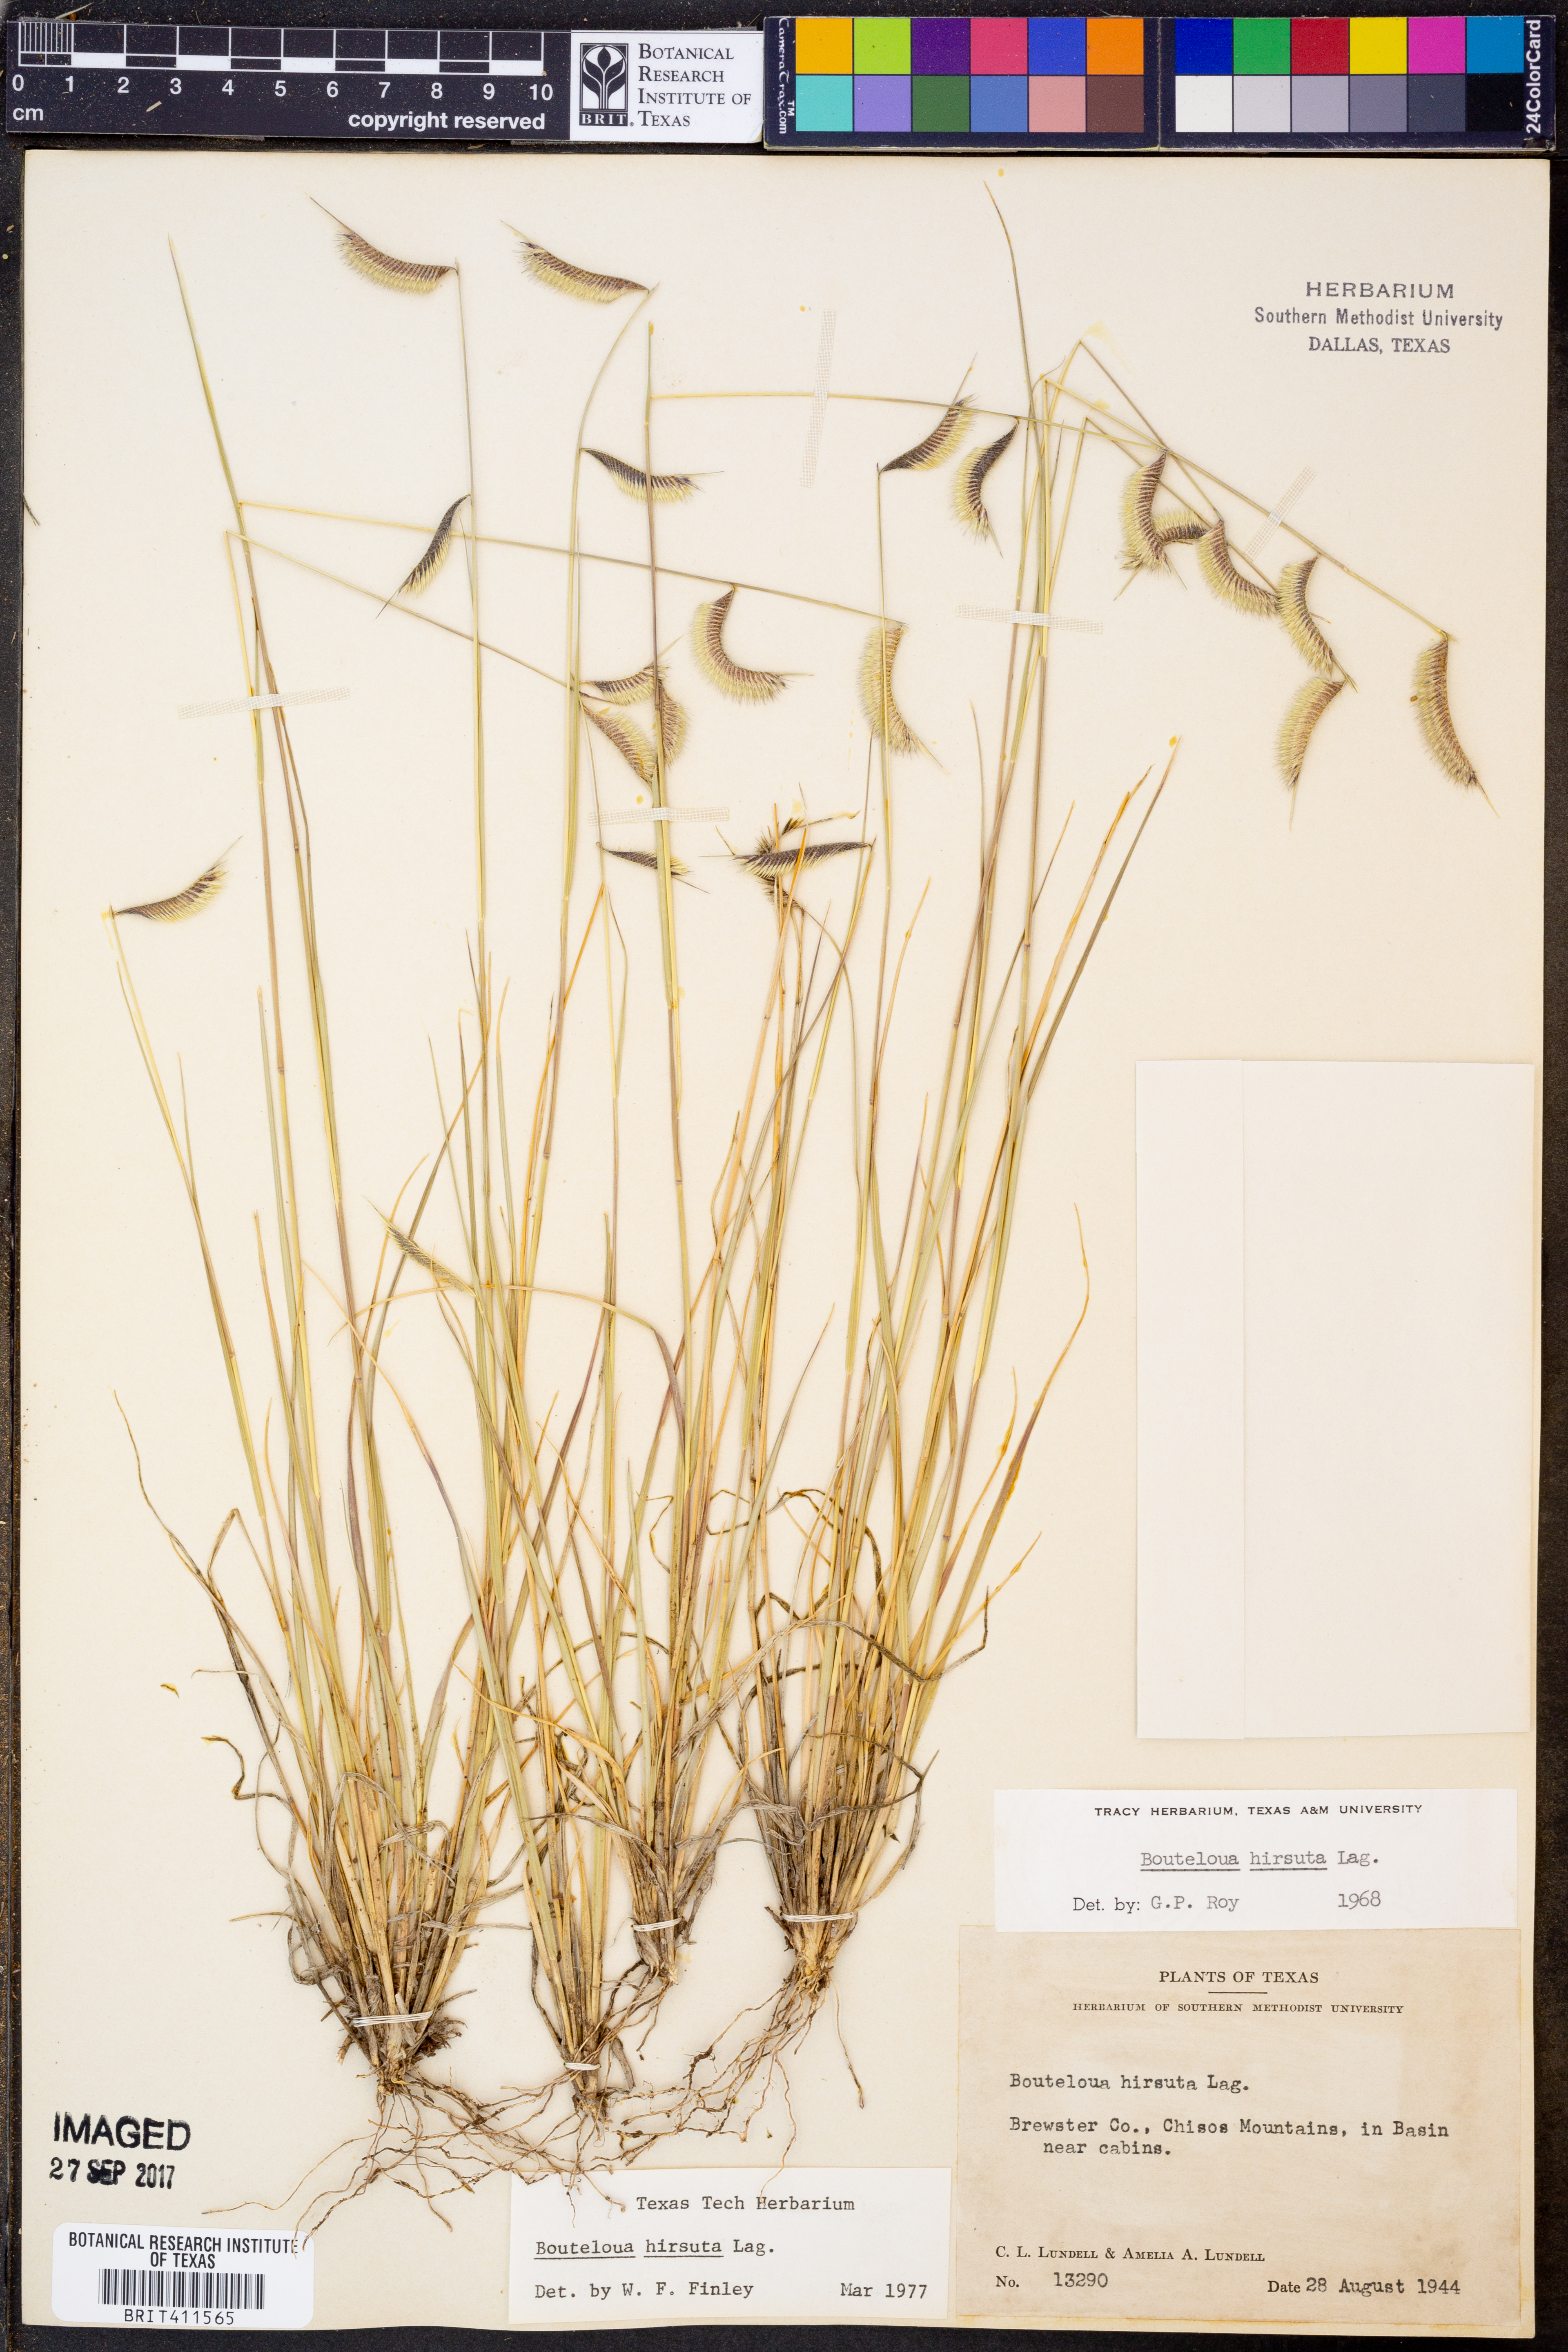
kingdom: Plantae
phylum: Tracheophyta
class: Liliopsida
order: Poales
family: Poaceae
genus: Bouteloua
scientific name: Bouteloua hirsuta
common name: Hairy grama
